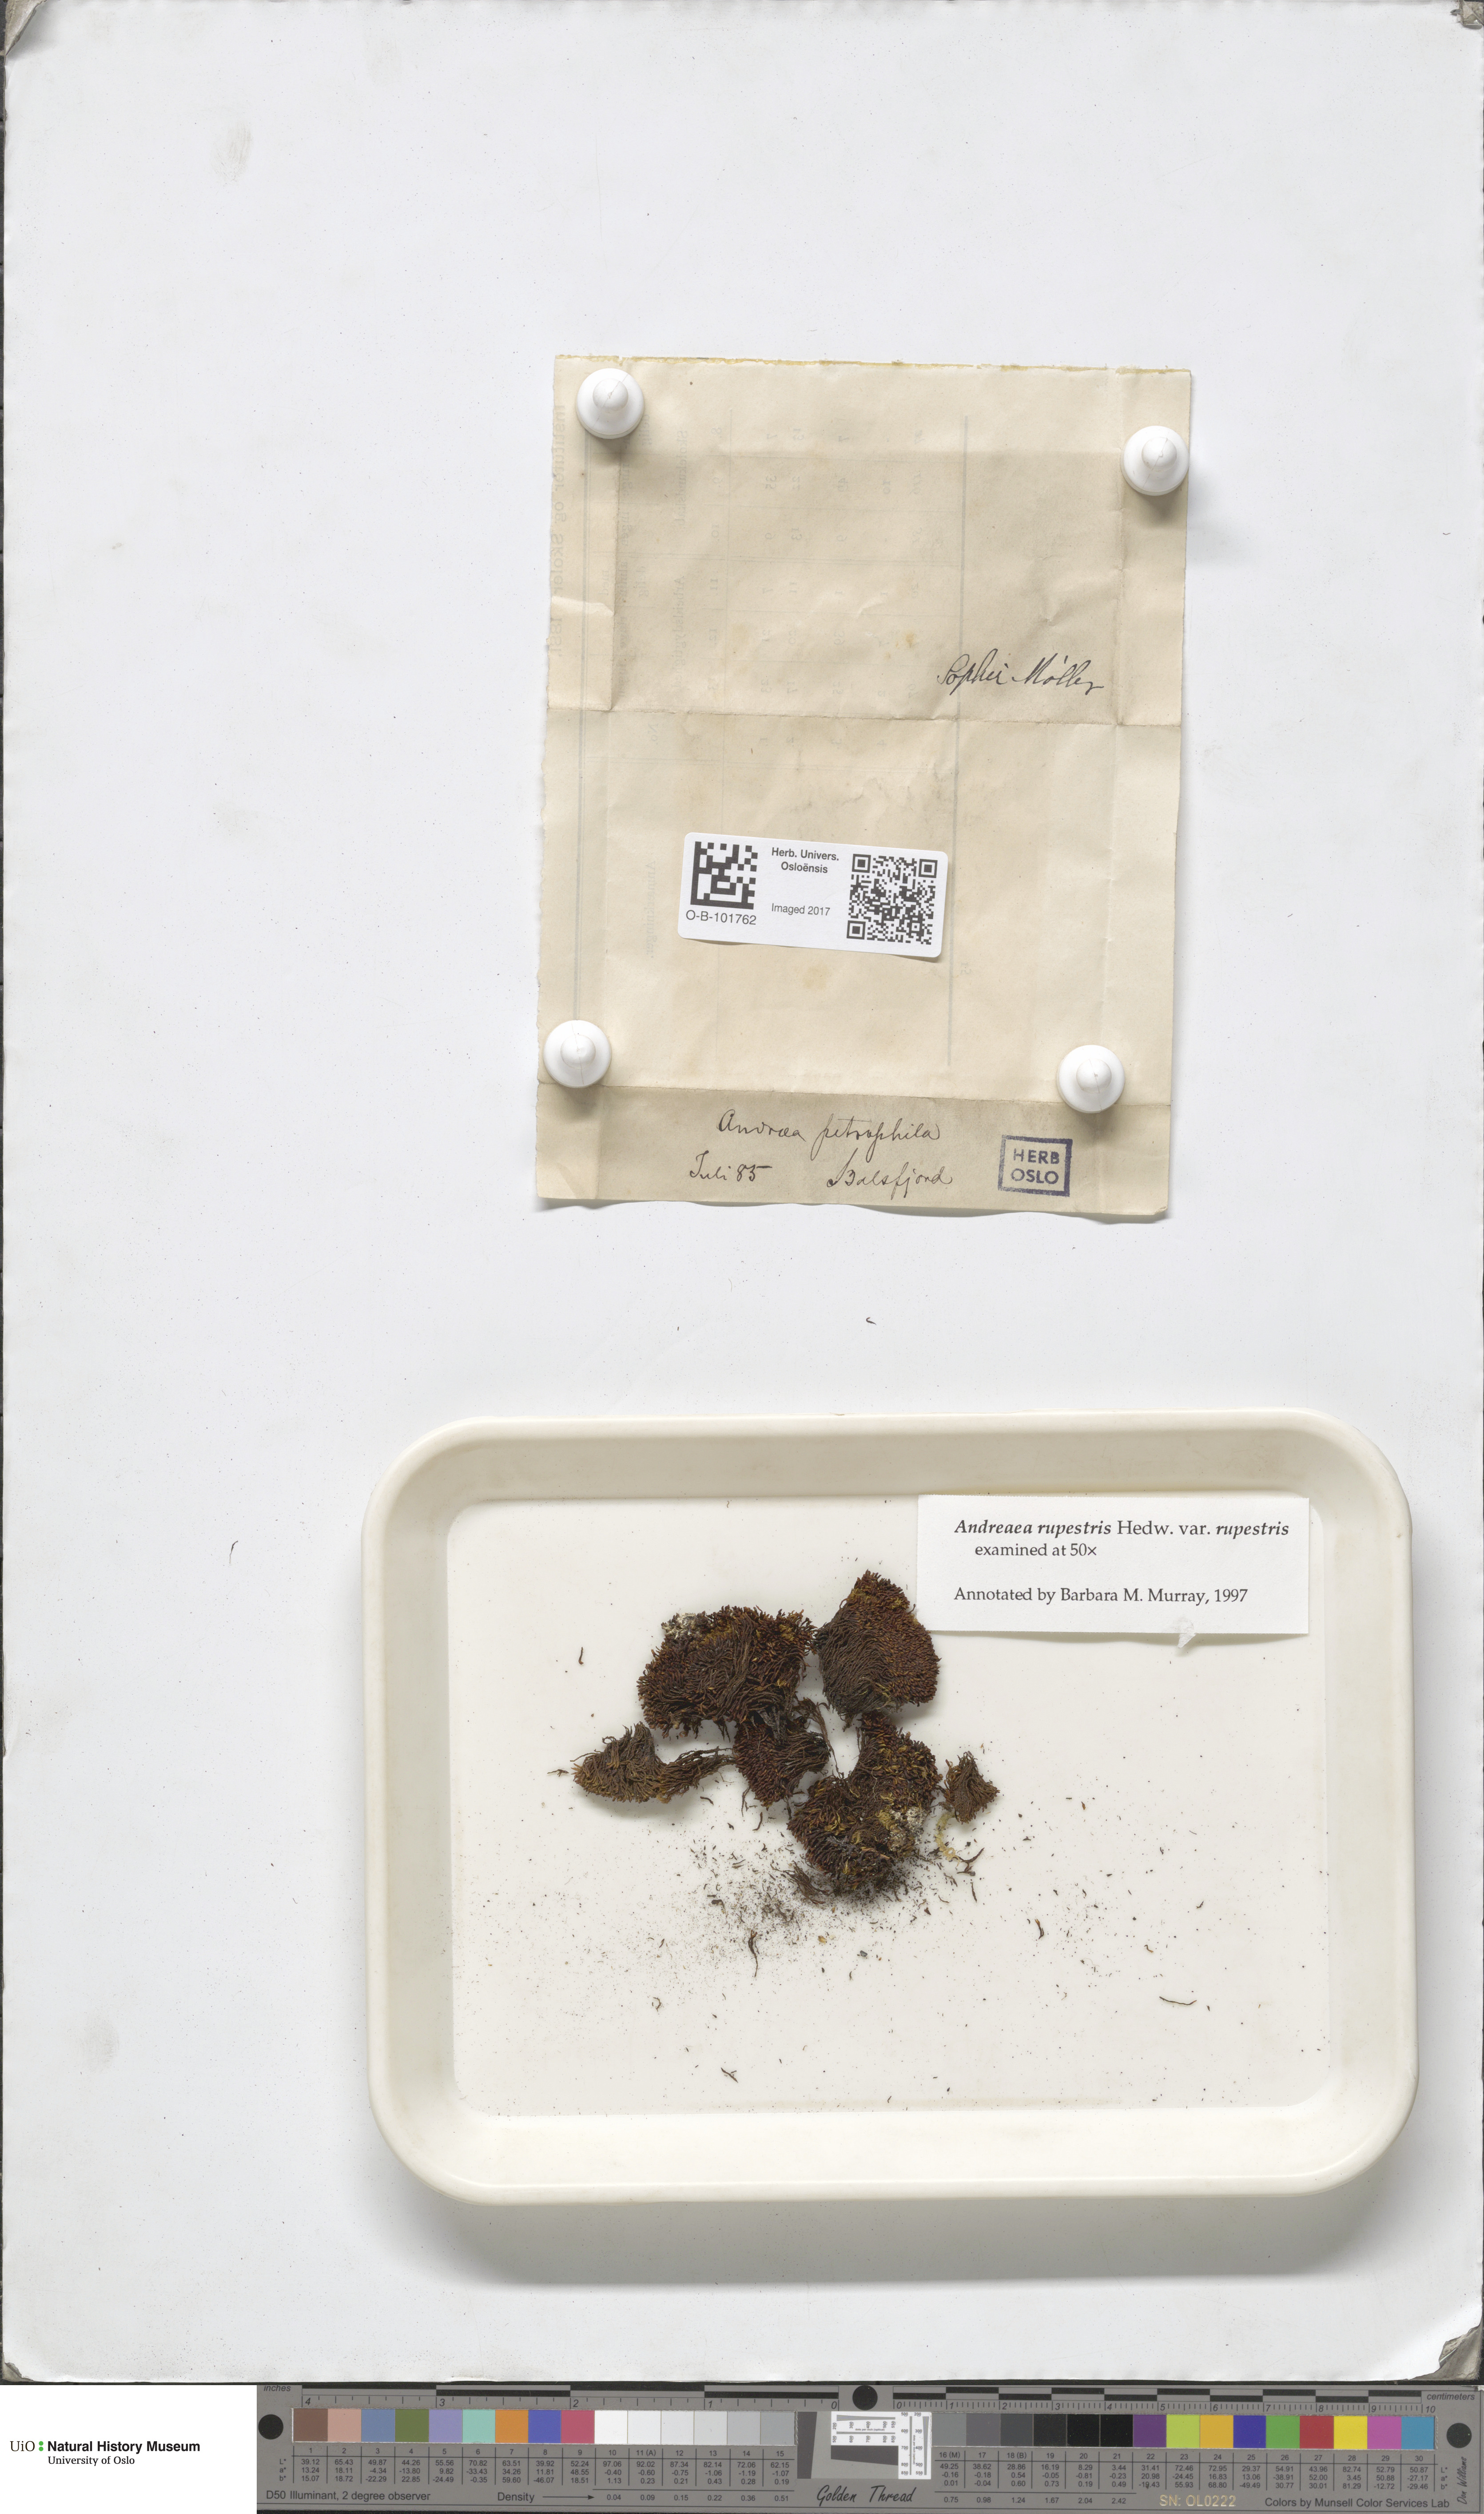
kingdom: Plantae
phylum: Bryophyta
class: Andreaeopsida
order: Andreaeales
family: Andreaeaceae
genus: Andreaea
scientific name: Andreaea rupestris
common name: Black rock moss
